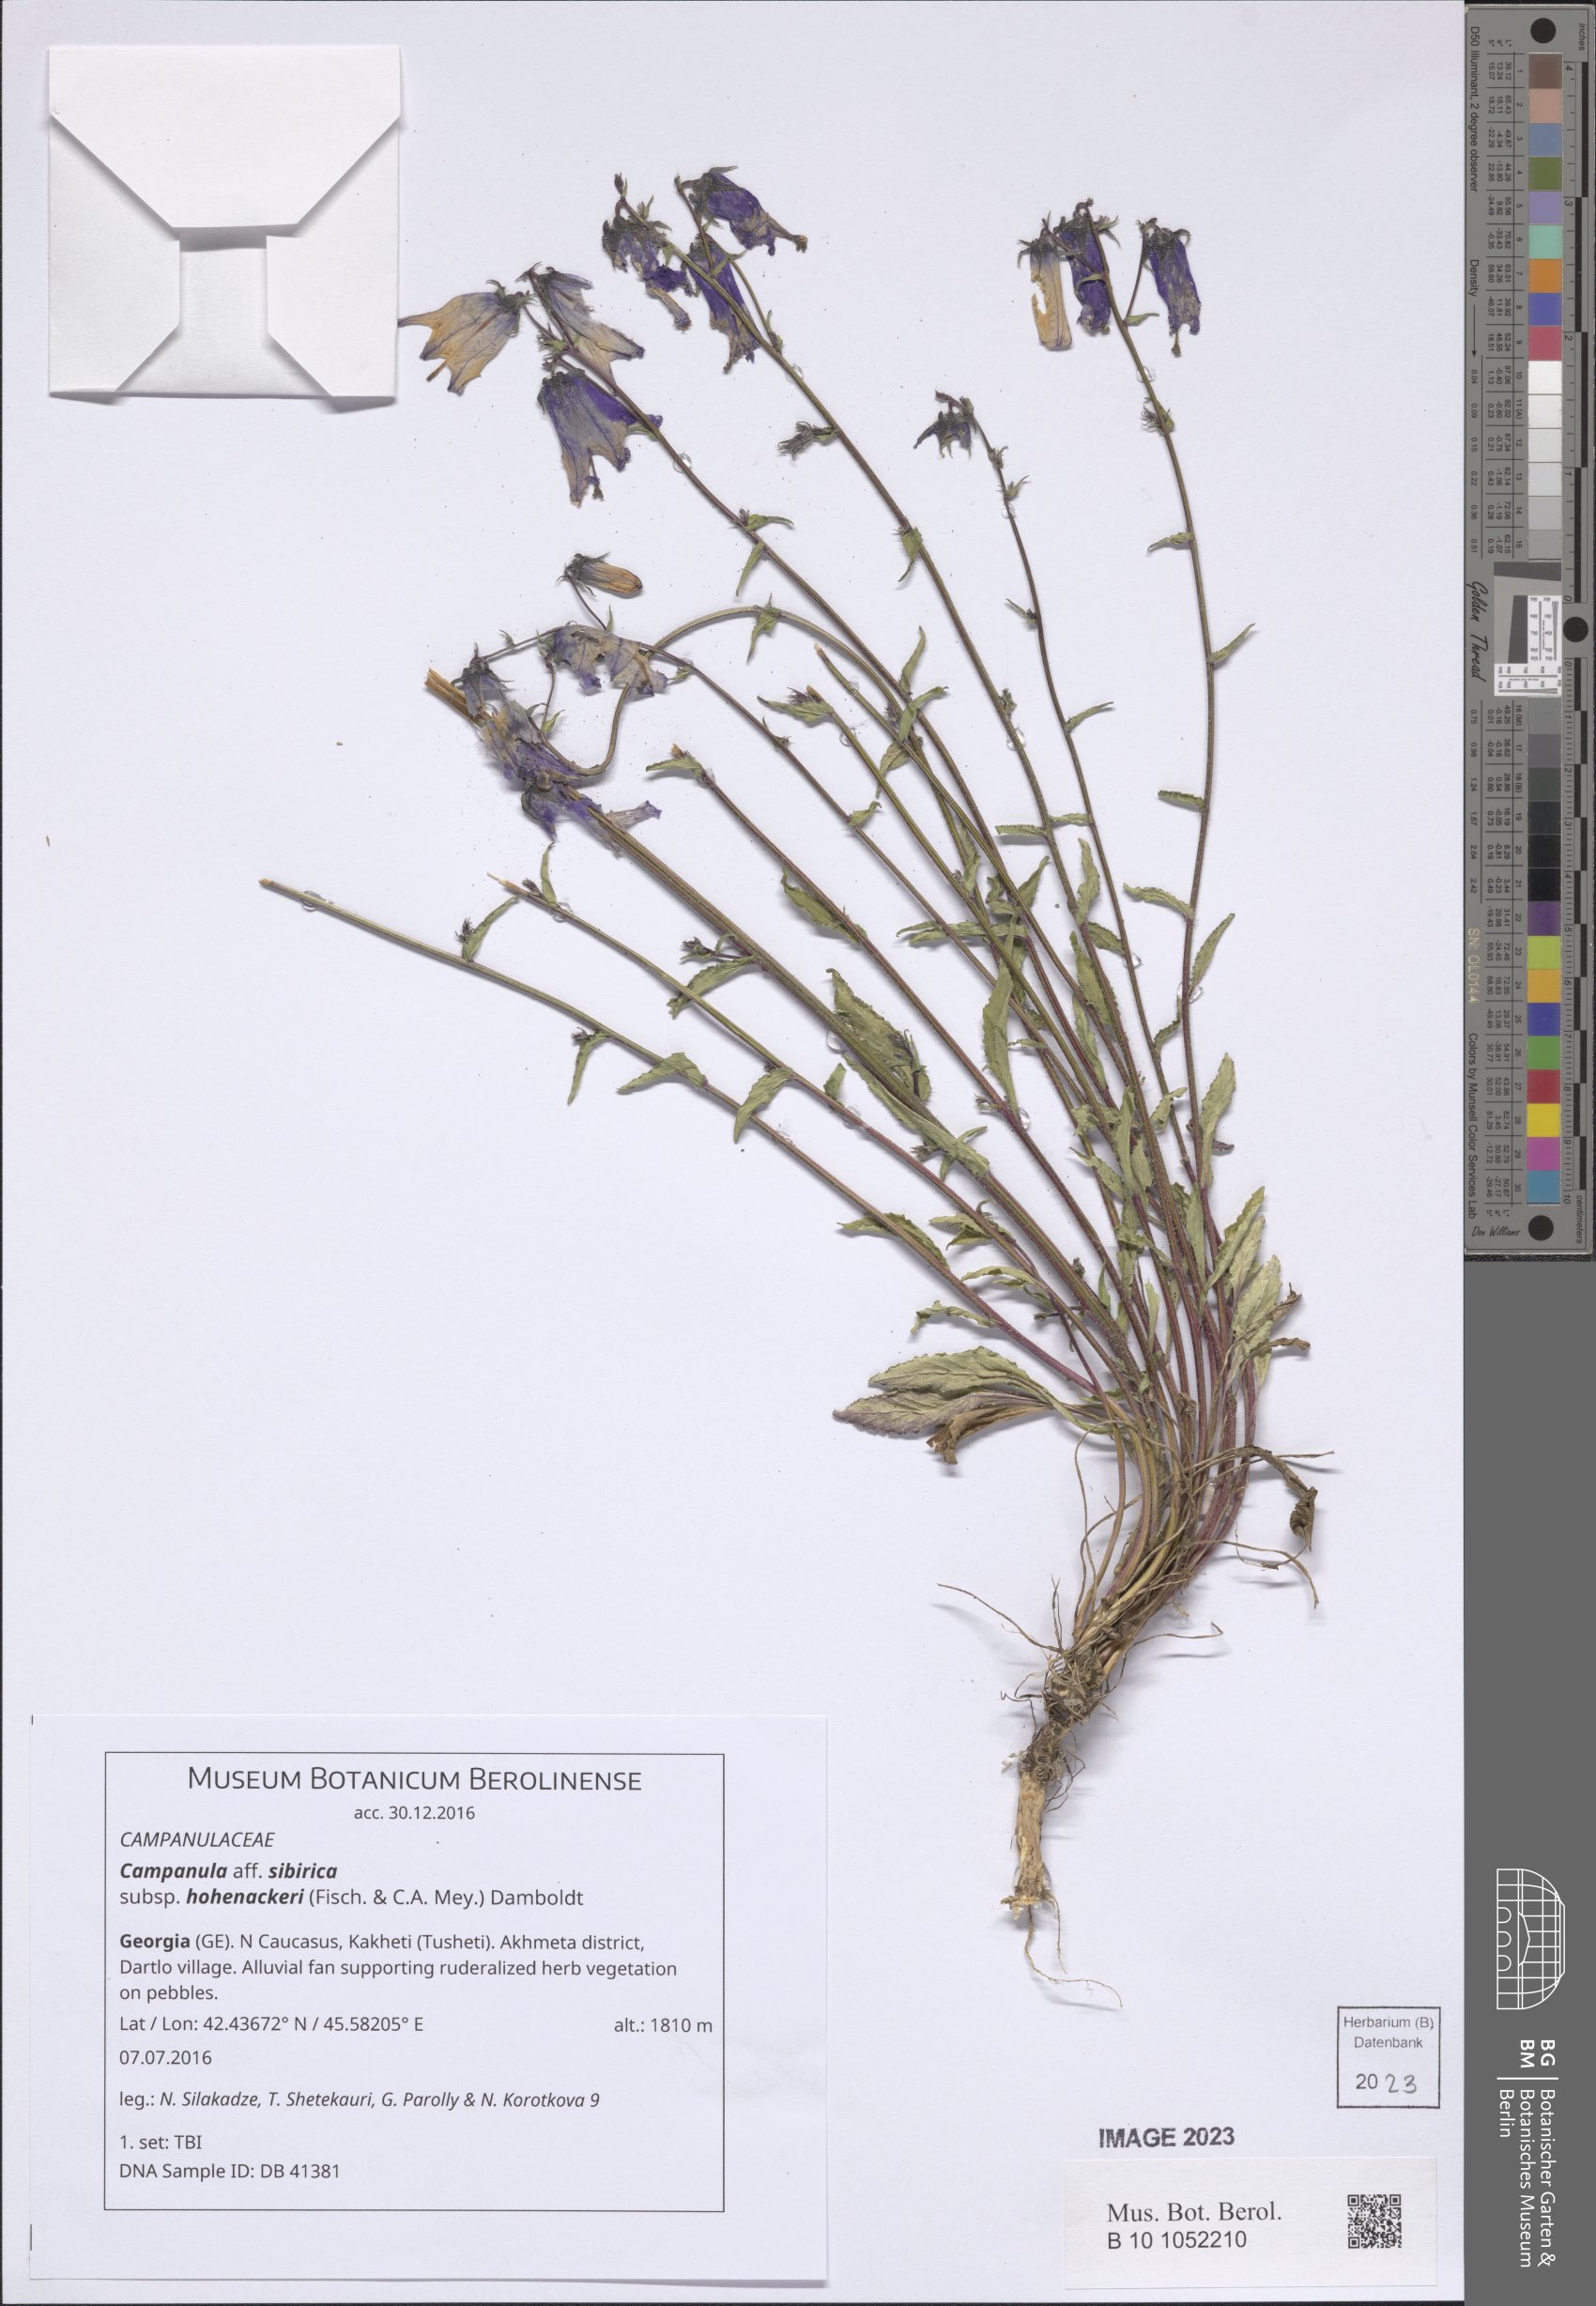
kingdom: Plantae
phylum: Tracheophyta
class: Magnoliopsida
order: Asterales
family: Campanulaceae
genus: Campanula
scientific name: Campanula sibirica
